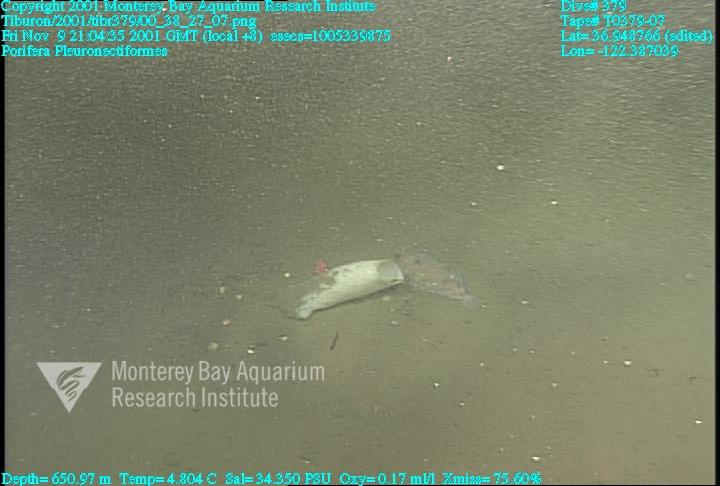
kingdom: Animalia
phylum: Porifera
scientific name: Porifera
